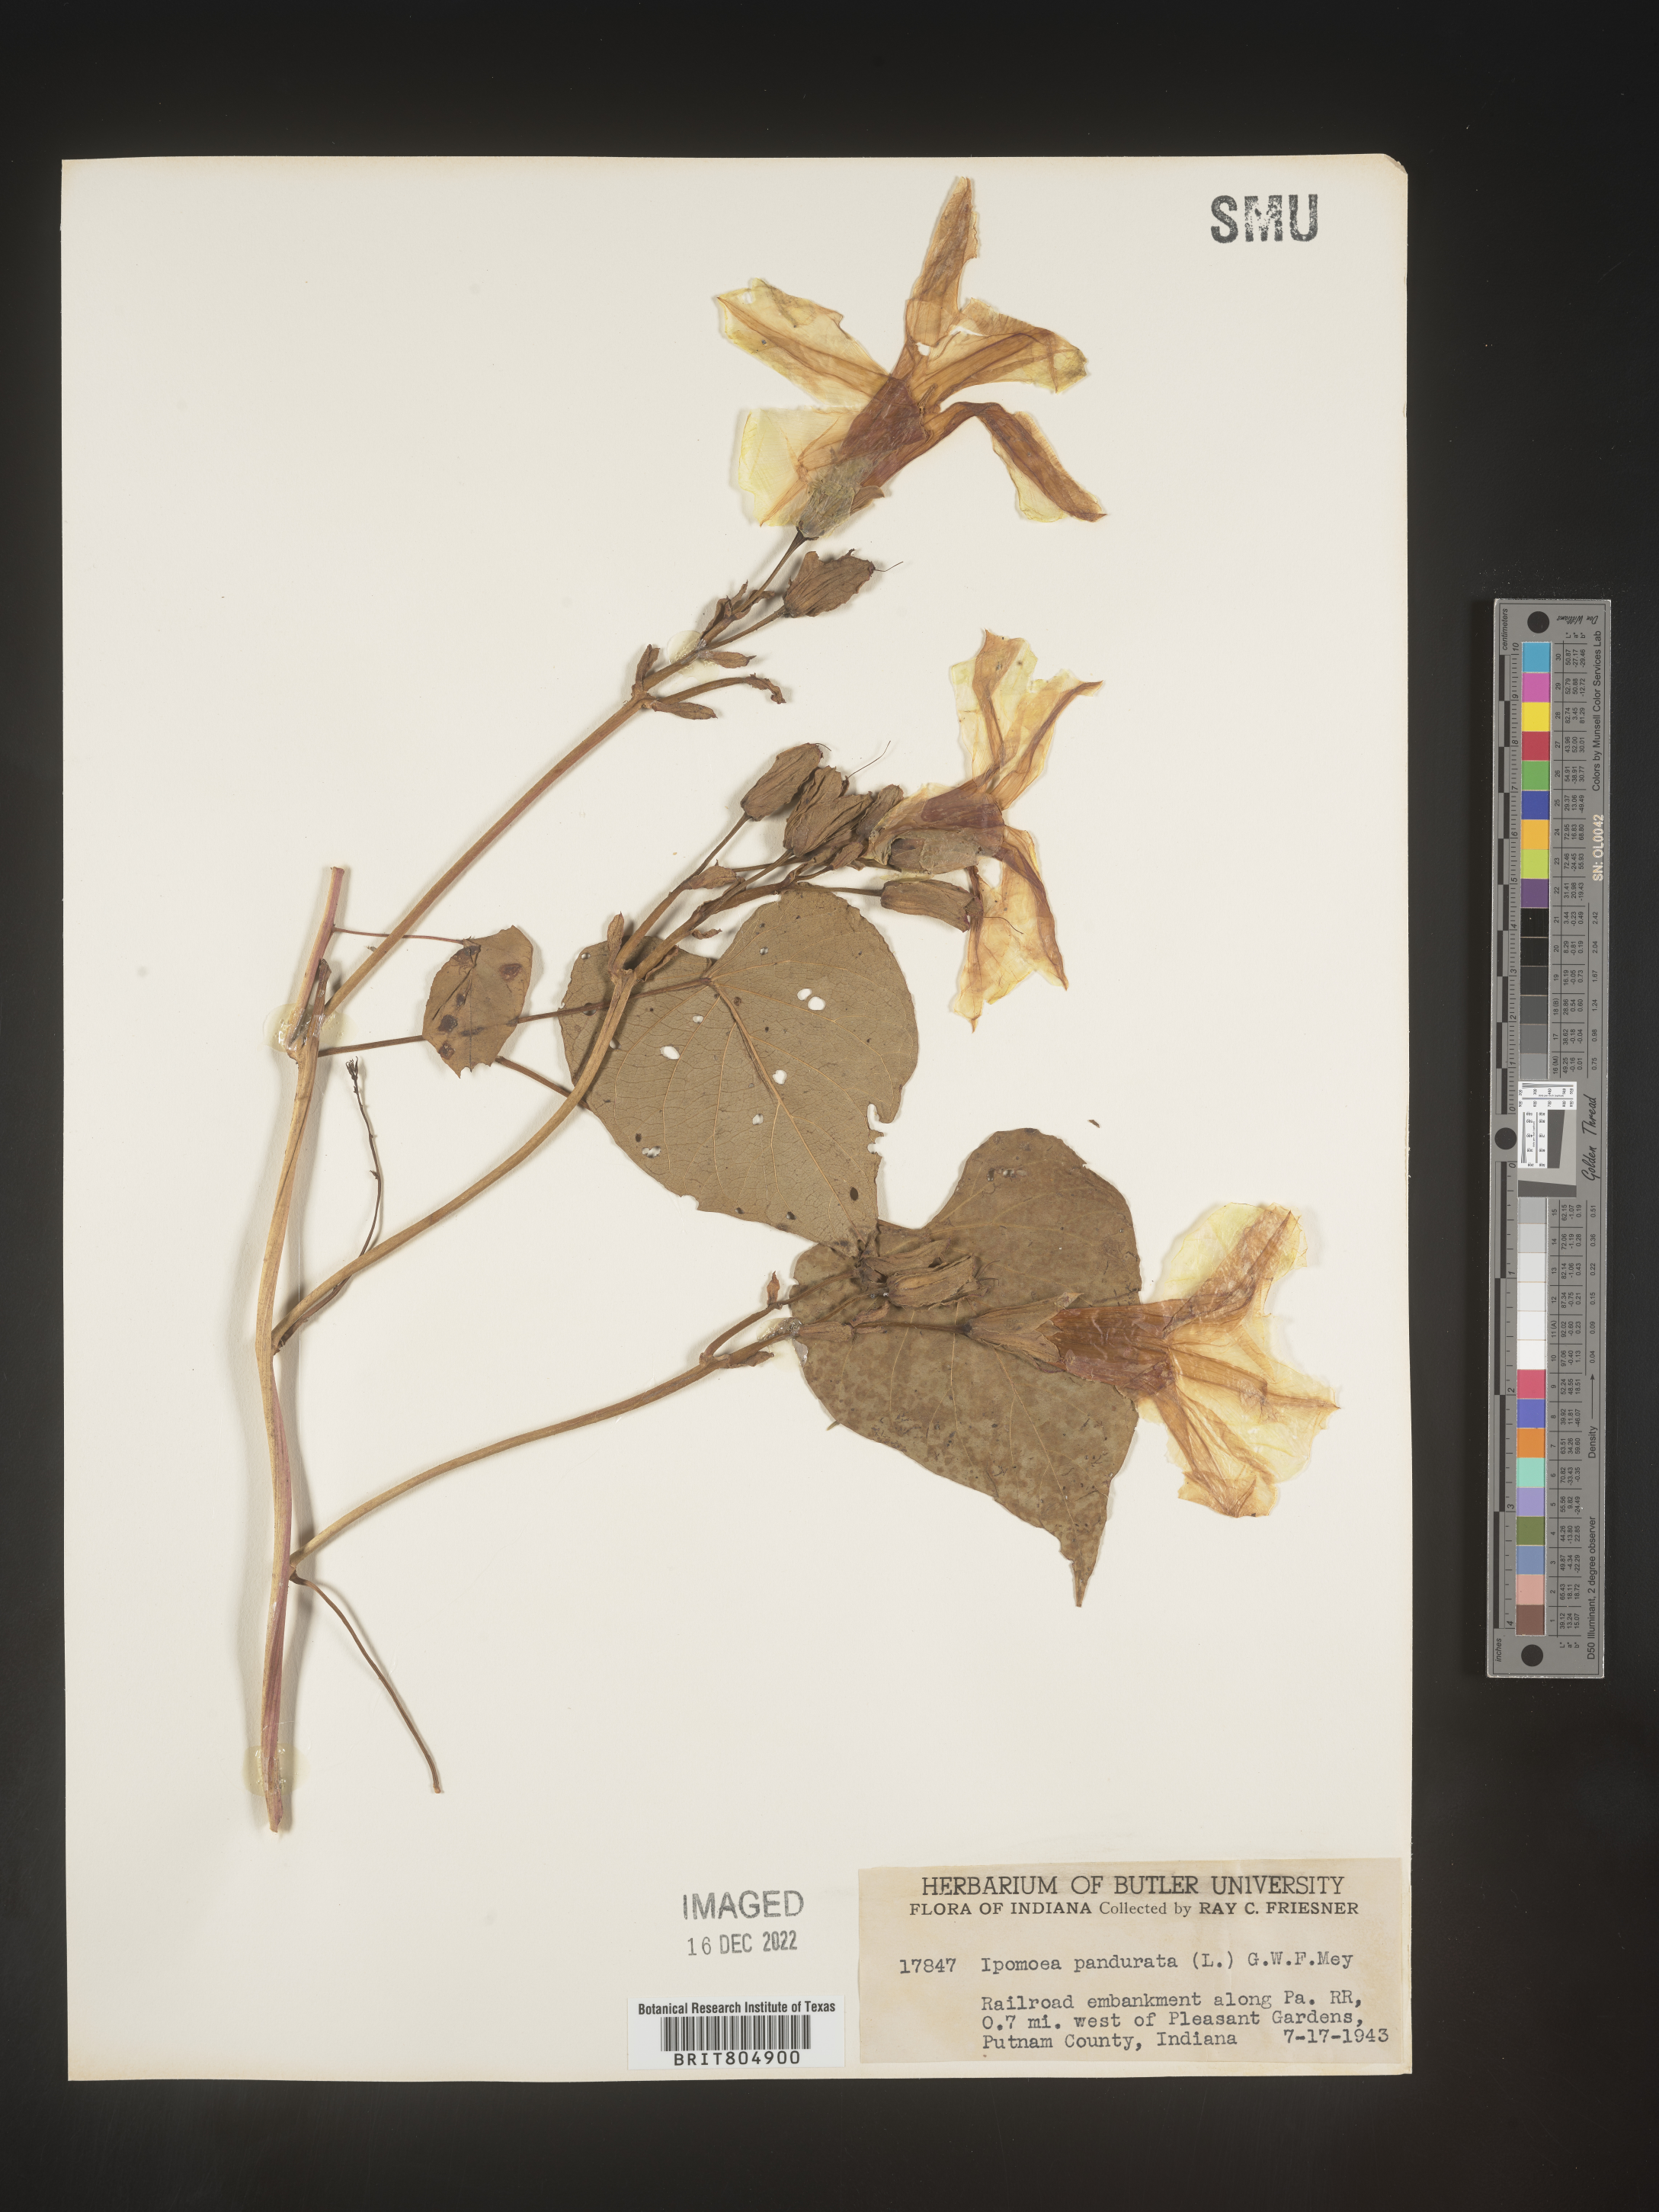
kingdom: Plantae
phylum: Tracheophyta
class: Magnoliopsida
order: Solanales
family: Convolvulaceae
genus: Ipomoea
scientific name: Ipomoea pandurata
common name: Man-of-the-earth
